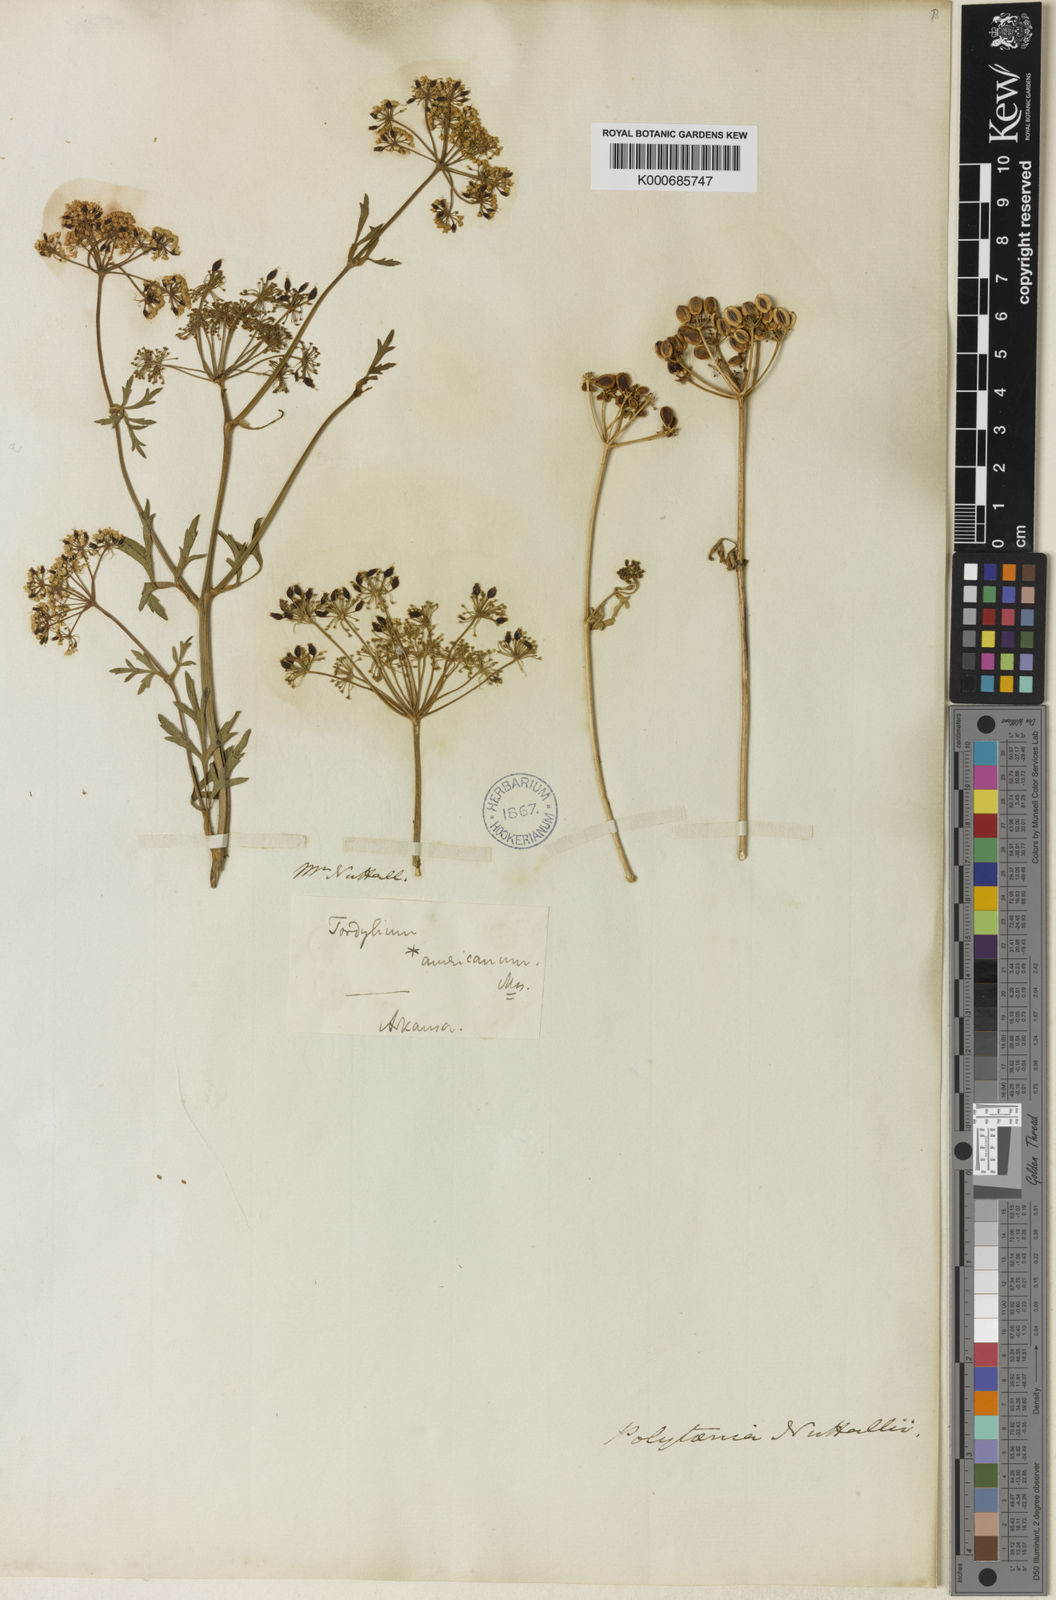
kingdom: Plantae
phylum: Tracheophyta
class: Magnoliopsida
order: Apiales
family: Apiaceae
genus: Polytaenia
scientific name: Polytaenia nuttallii
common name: Prairie-parsley
